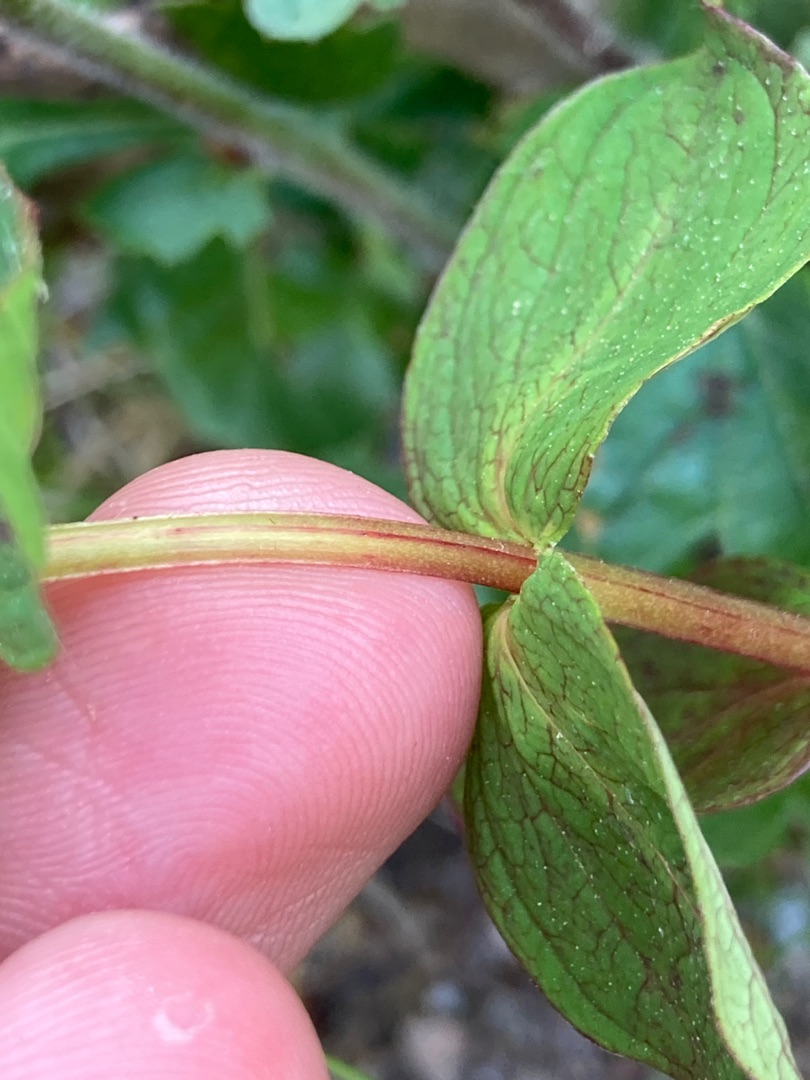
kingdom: Plantae
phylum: Tracheophyta
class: Magnoliopsida
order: Malpighiales
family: Hypericaceae
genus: Hypericum
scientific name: Hypericum maculatum
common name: Kantet perikon
